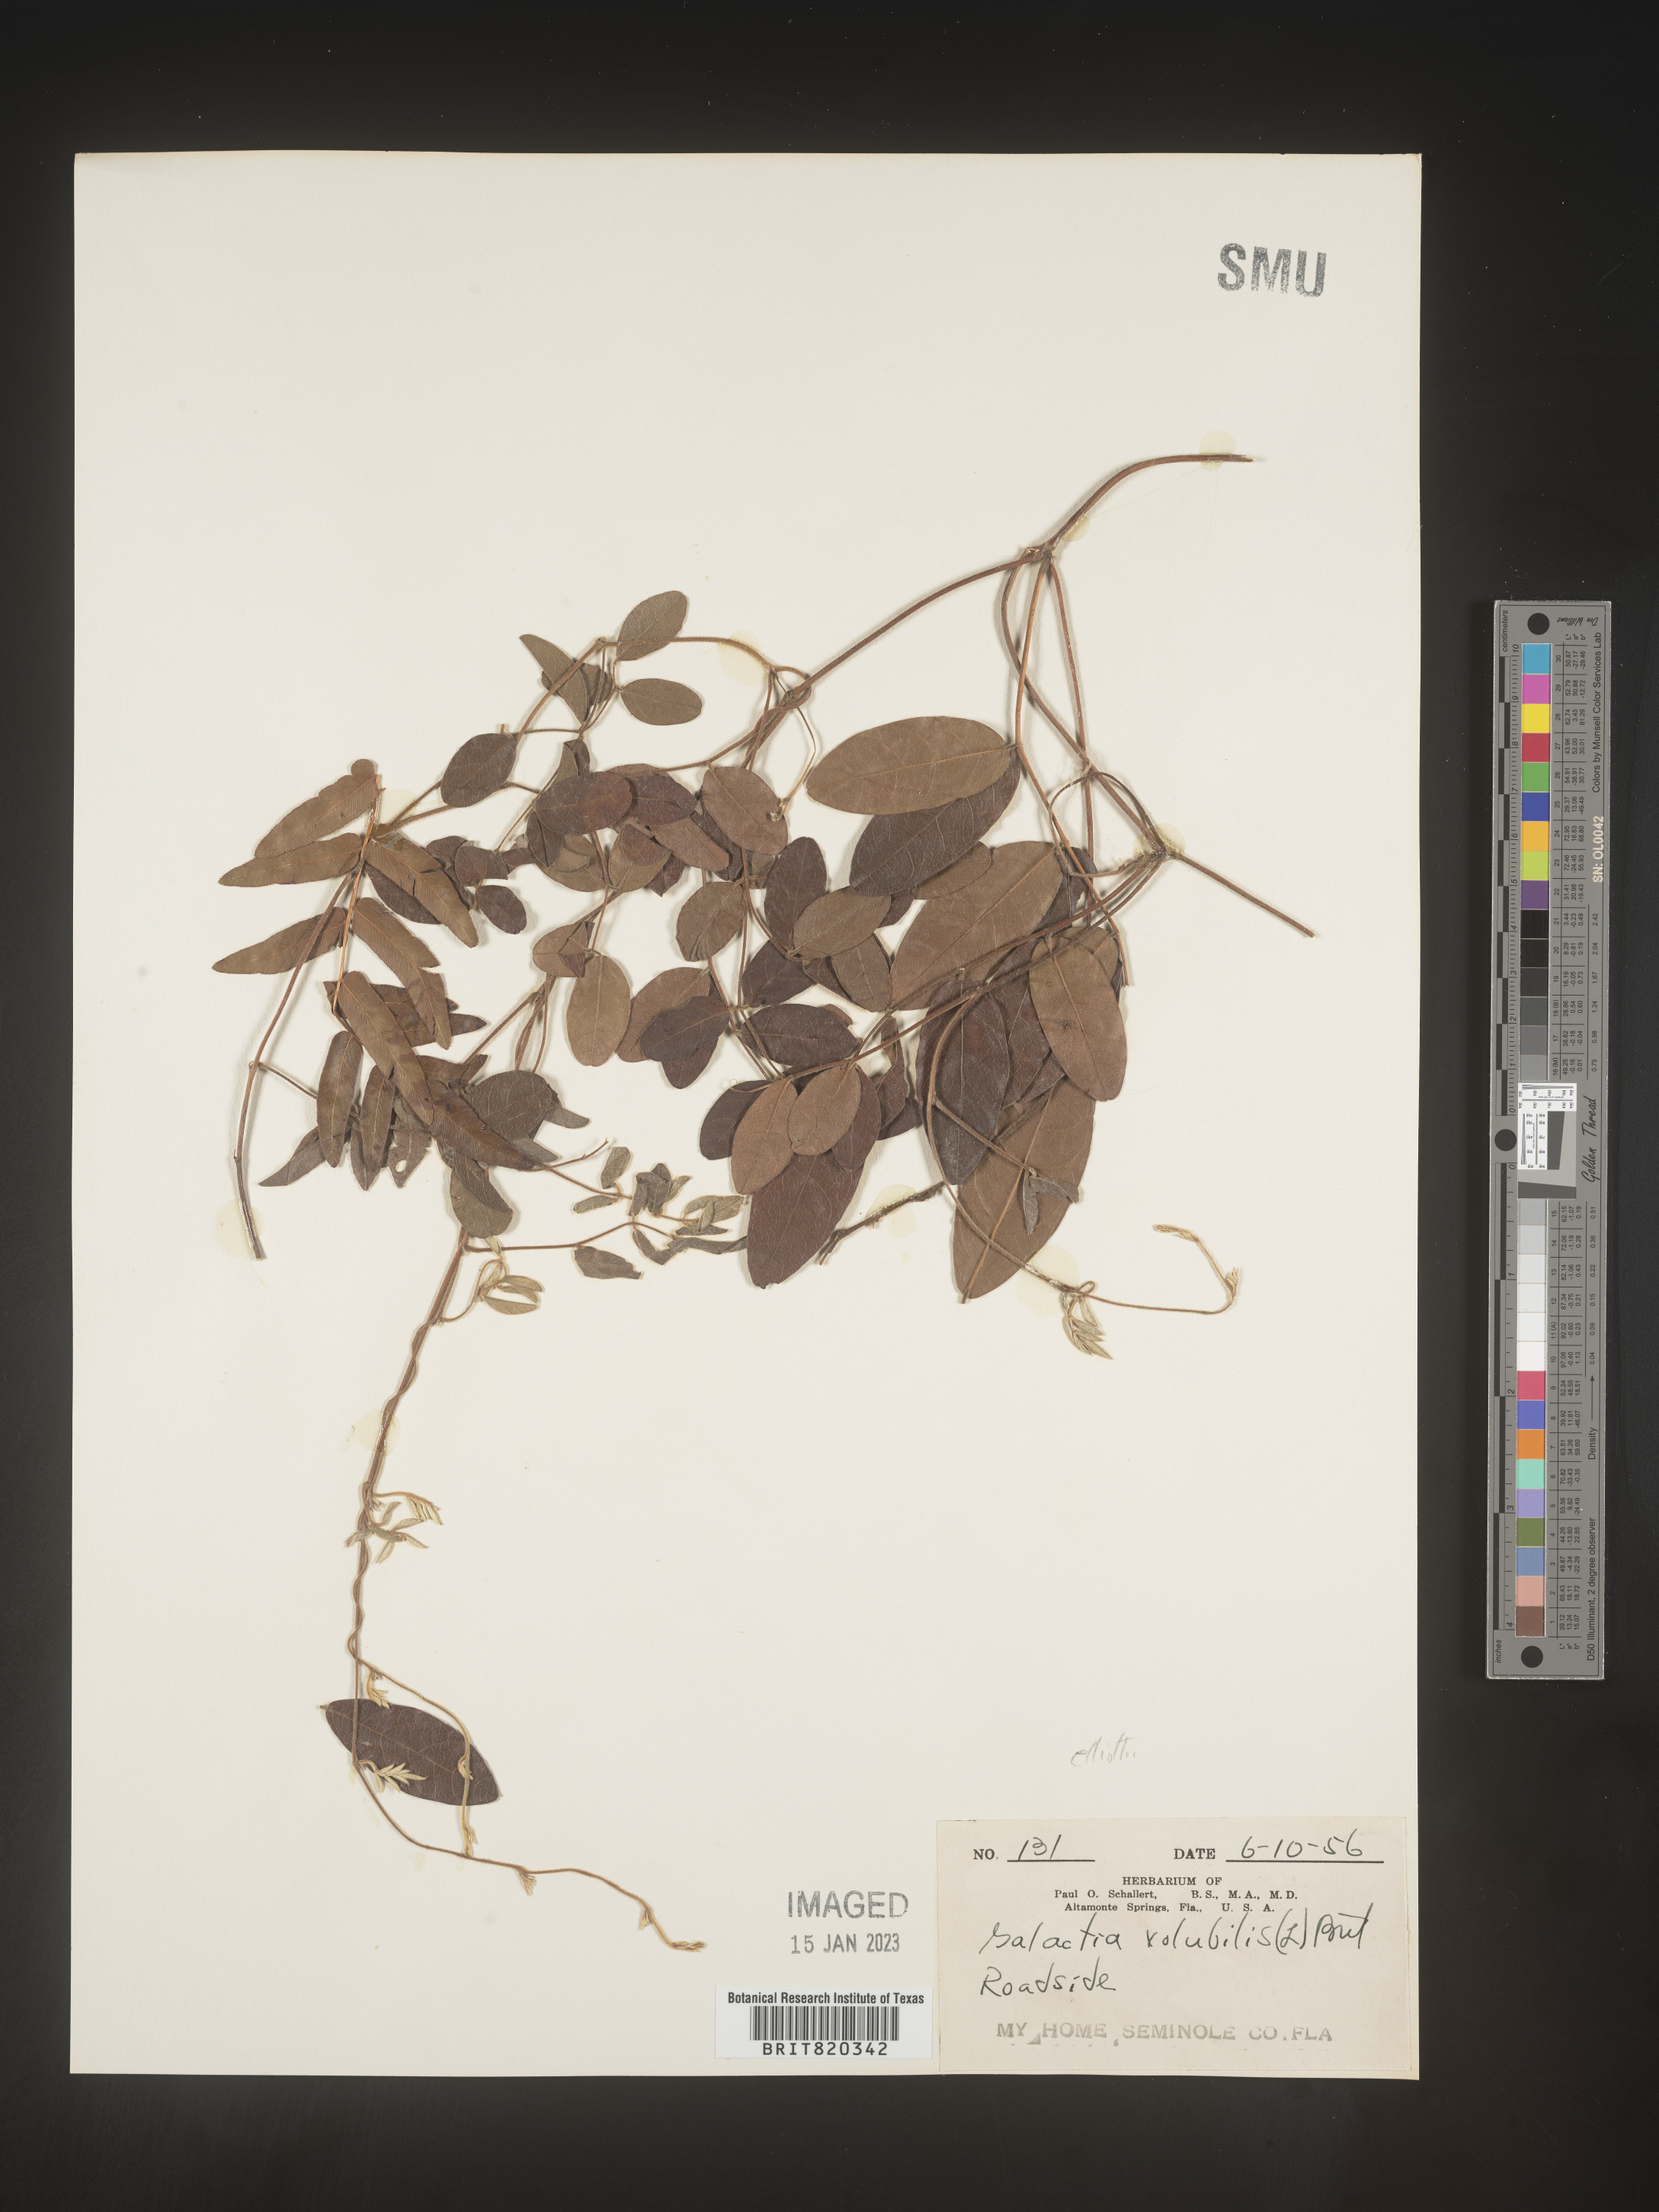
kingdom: Plantae
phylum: Tracheophyta
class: Magnoliopsida
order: Fabales
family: Fabaceae
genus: Galactia
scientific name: Galactia elliottii
